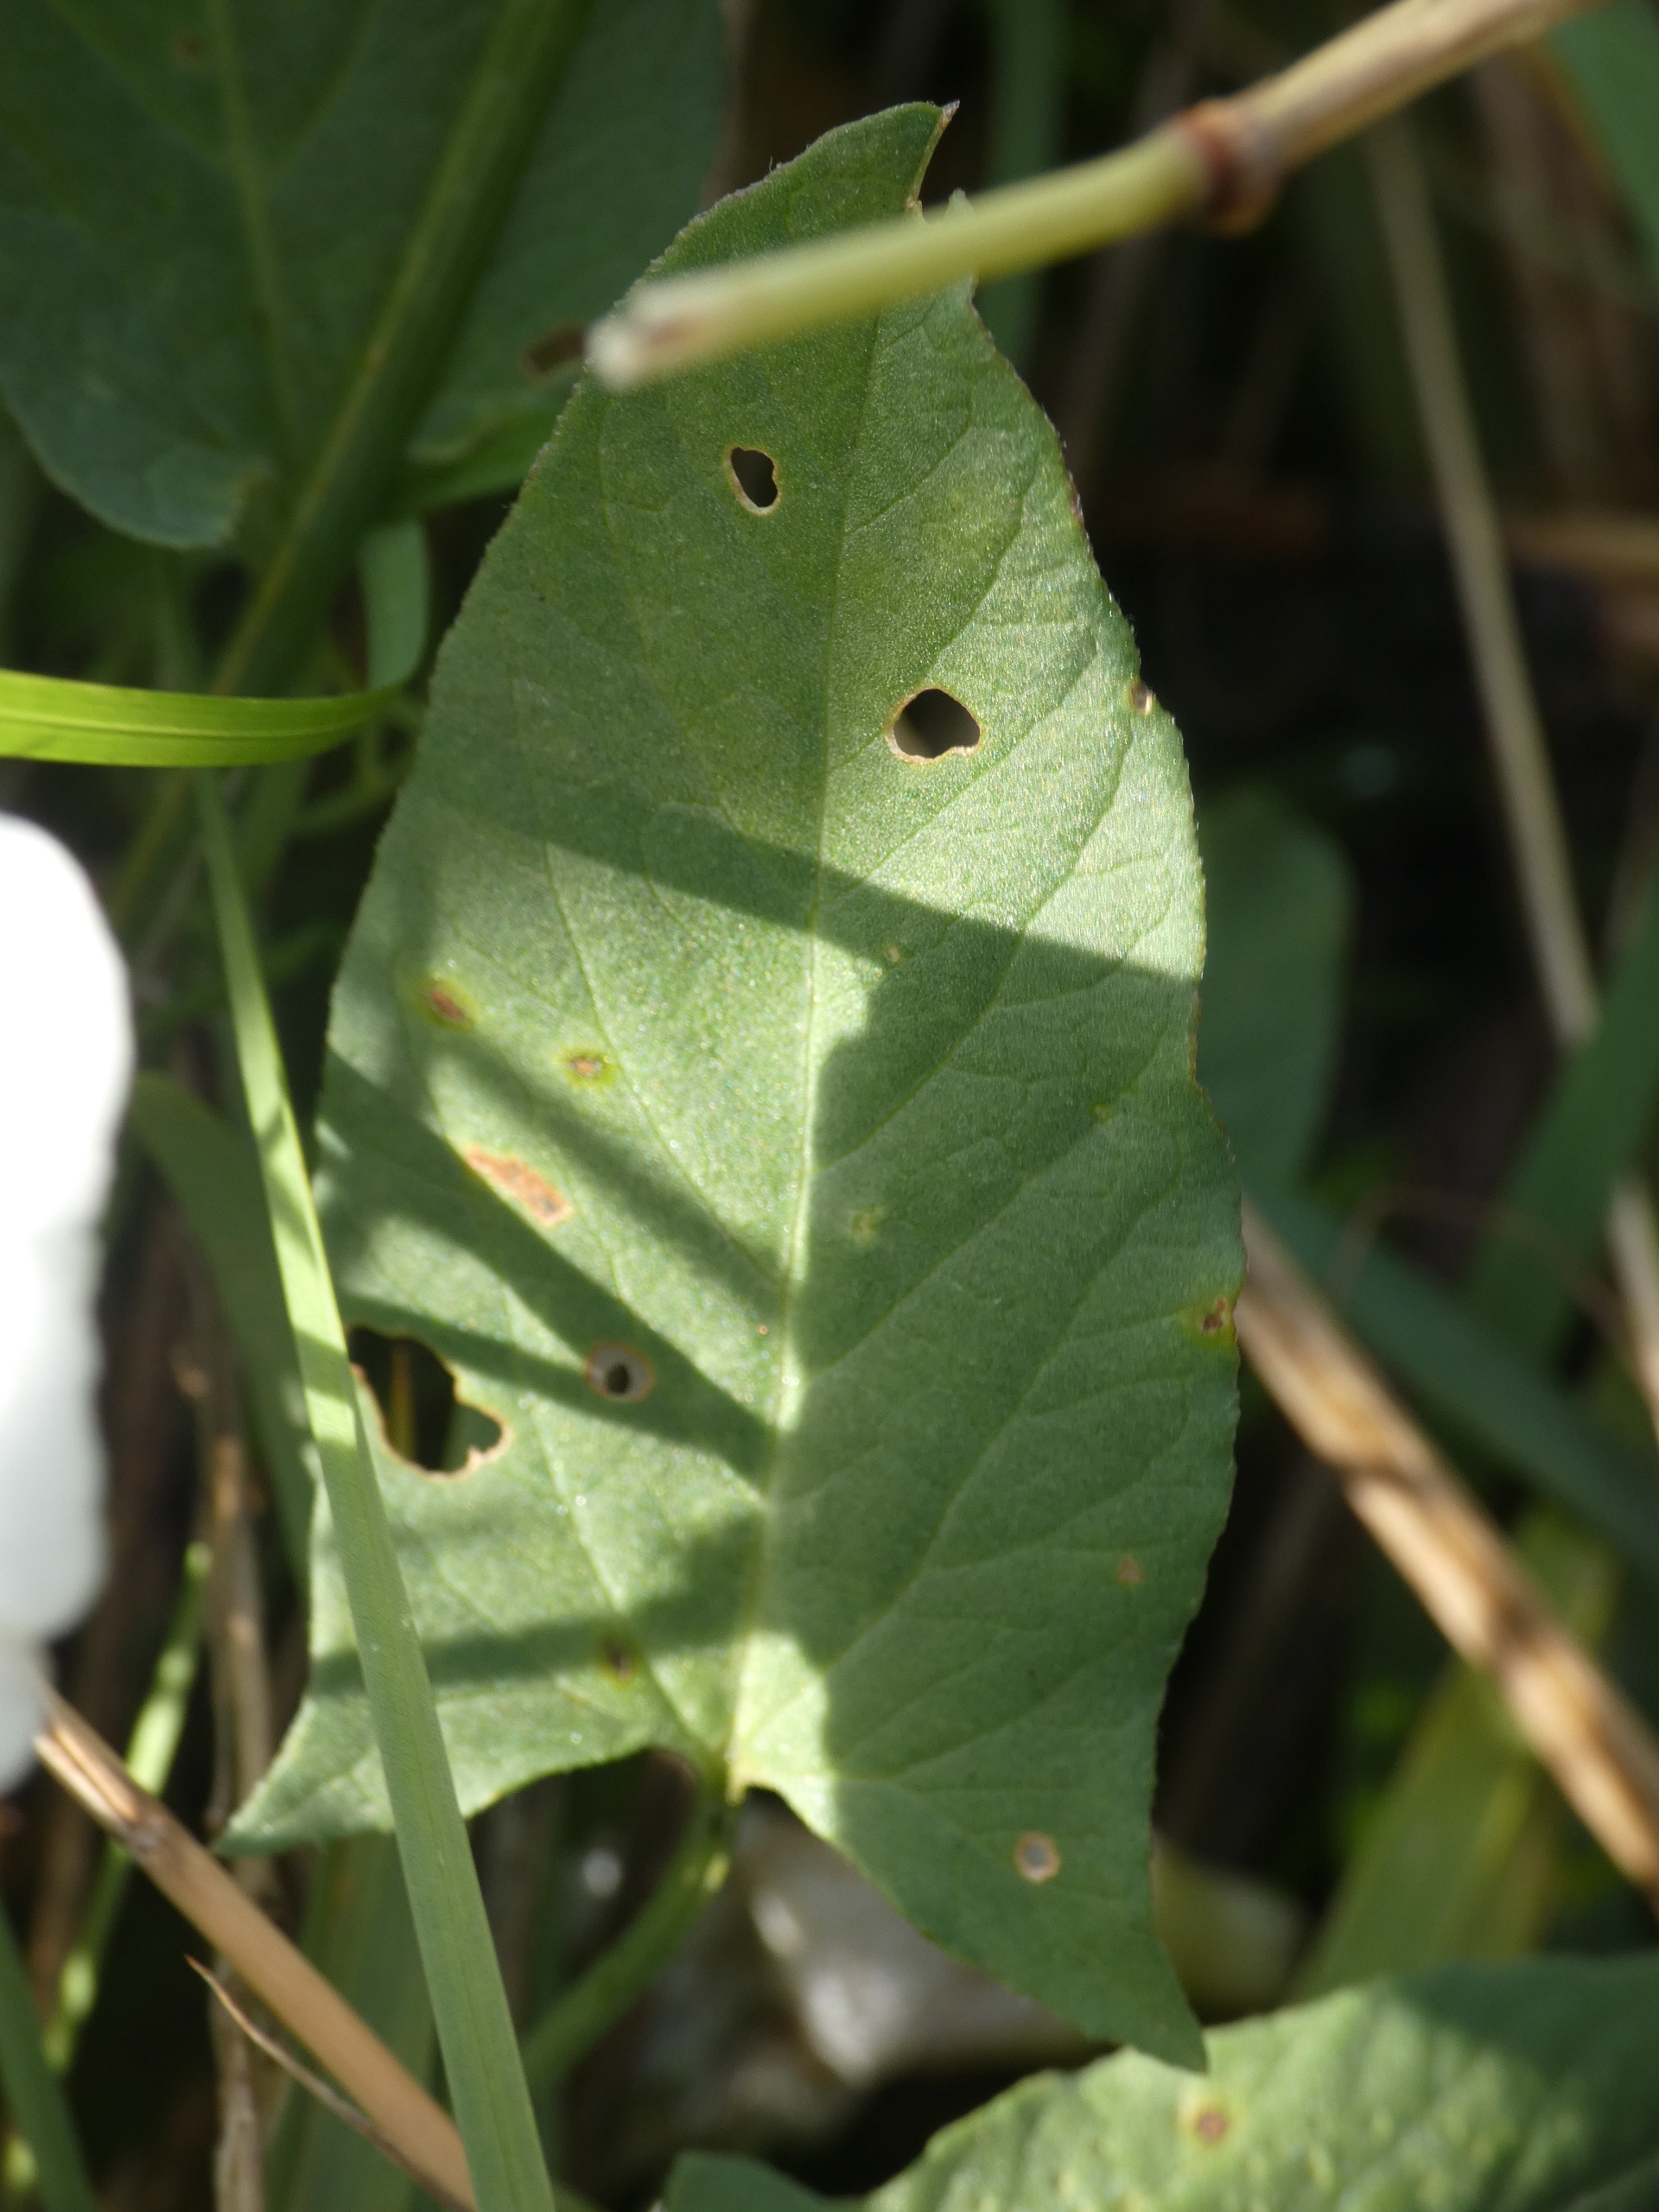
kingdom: Plantae
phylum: Tracheophyta
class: Magnoliopsida
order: Solanales
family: Convolvulaceae
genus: Convolvulus
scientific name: Convolvulus arvensis
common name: Ager-snerle
